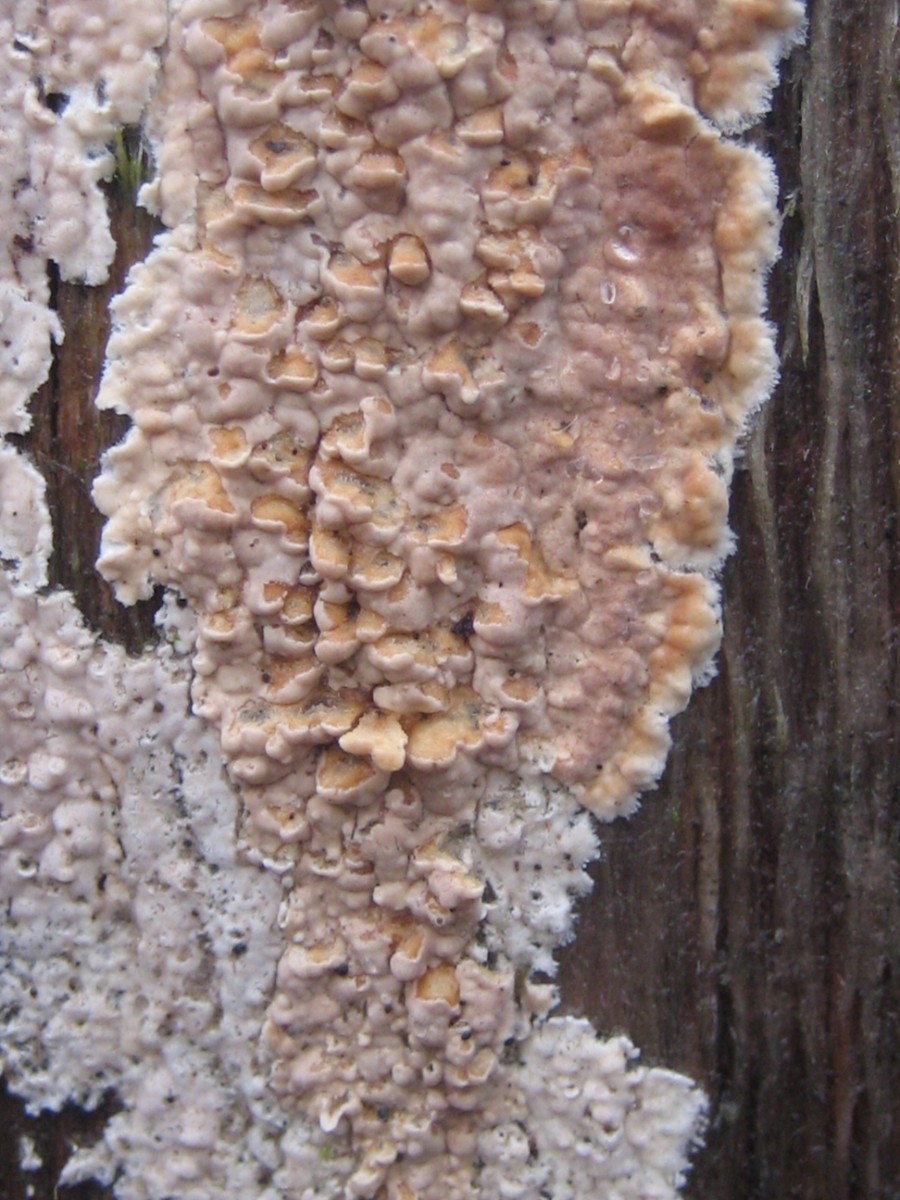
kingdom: Fungi
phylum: Basidiomycota
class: Agaricomycetes
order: Corticiales
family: Corticiaceae
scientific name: Corticiaceae
